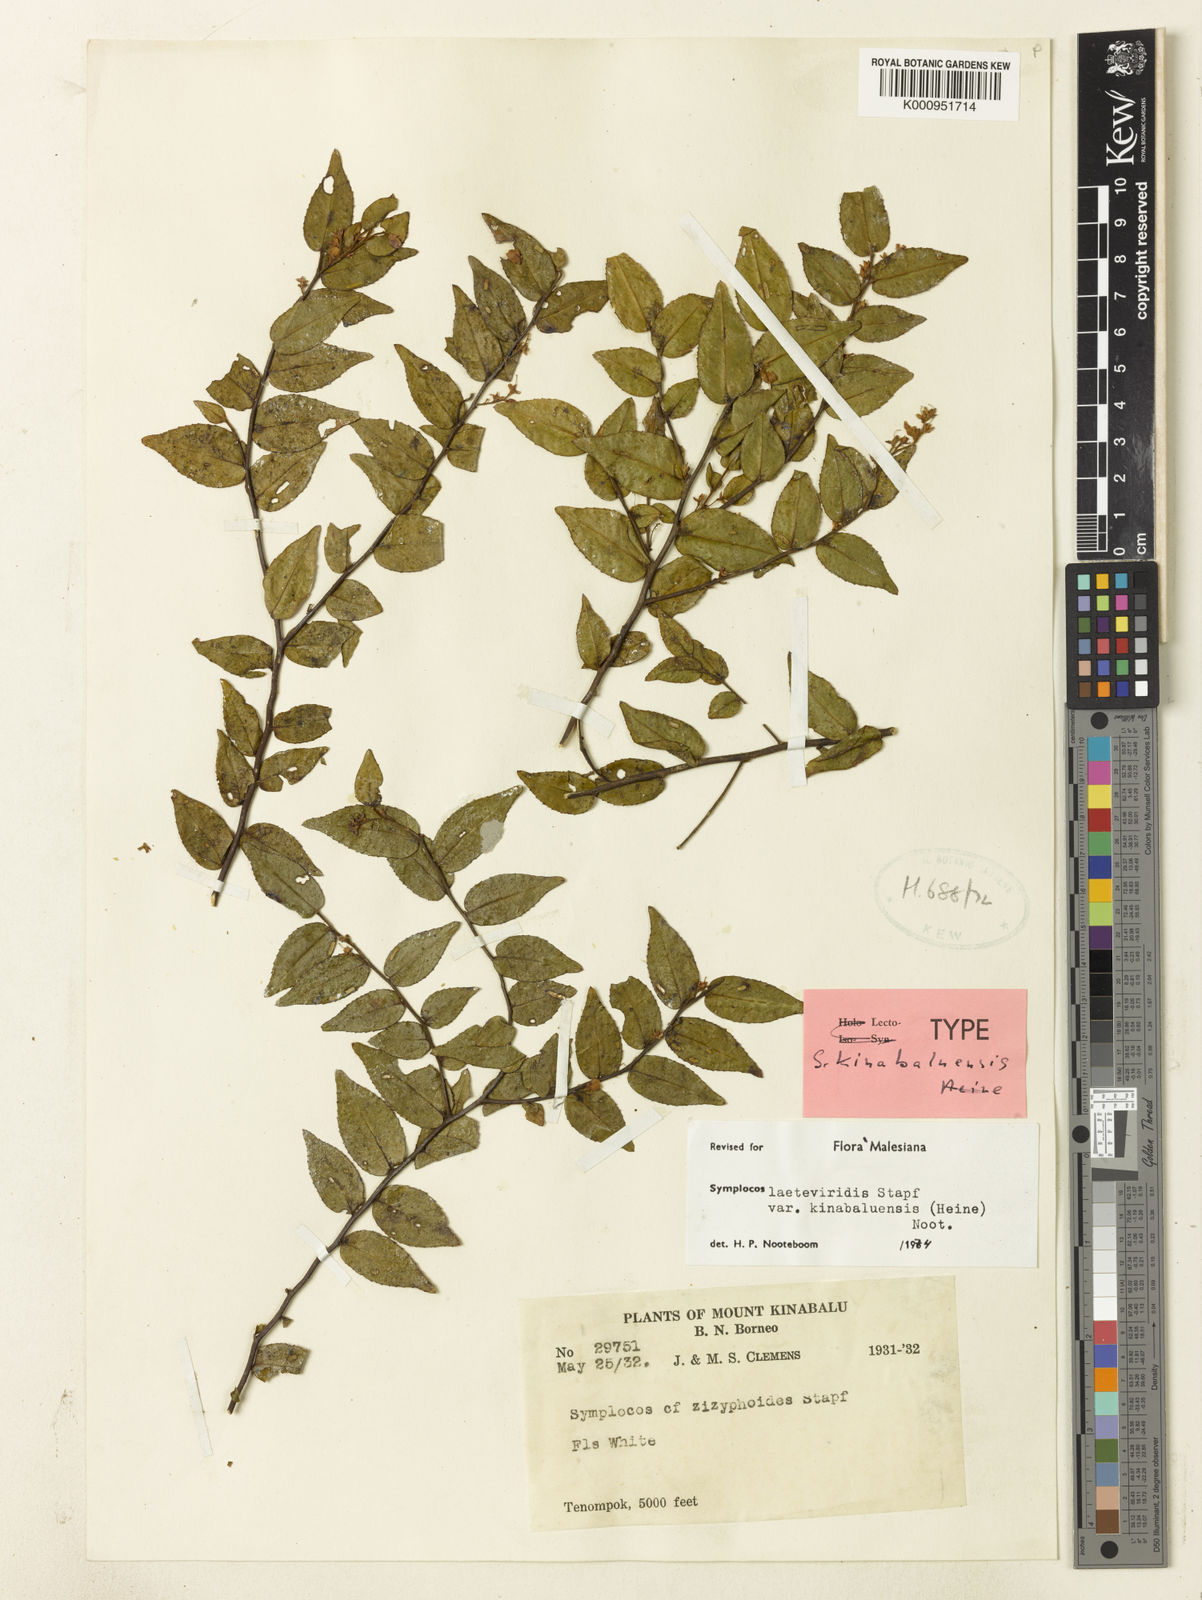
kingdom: Plantae
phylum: Tracheophyta
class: Magnoliopsida
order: Ericales
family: Symplocaceae
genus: Symplocos
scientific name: Symplocos laeteviridis
